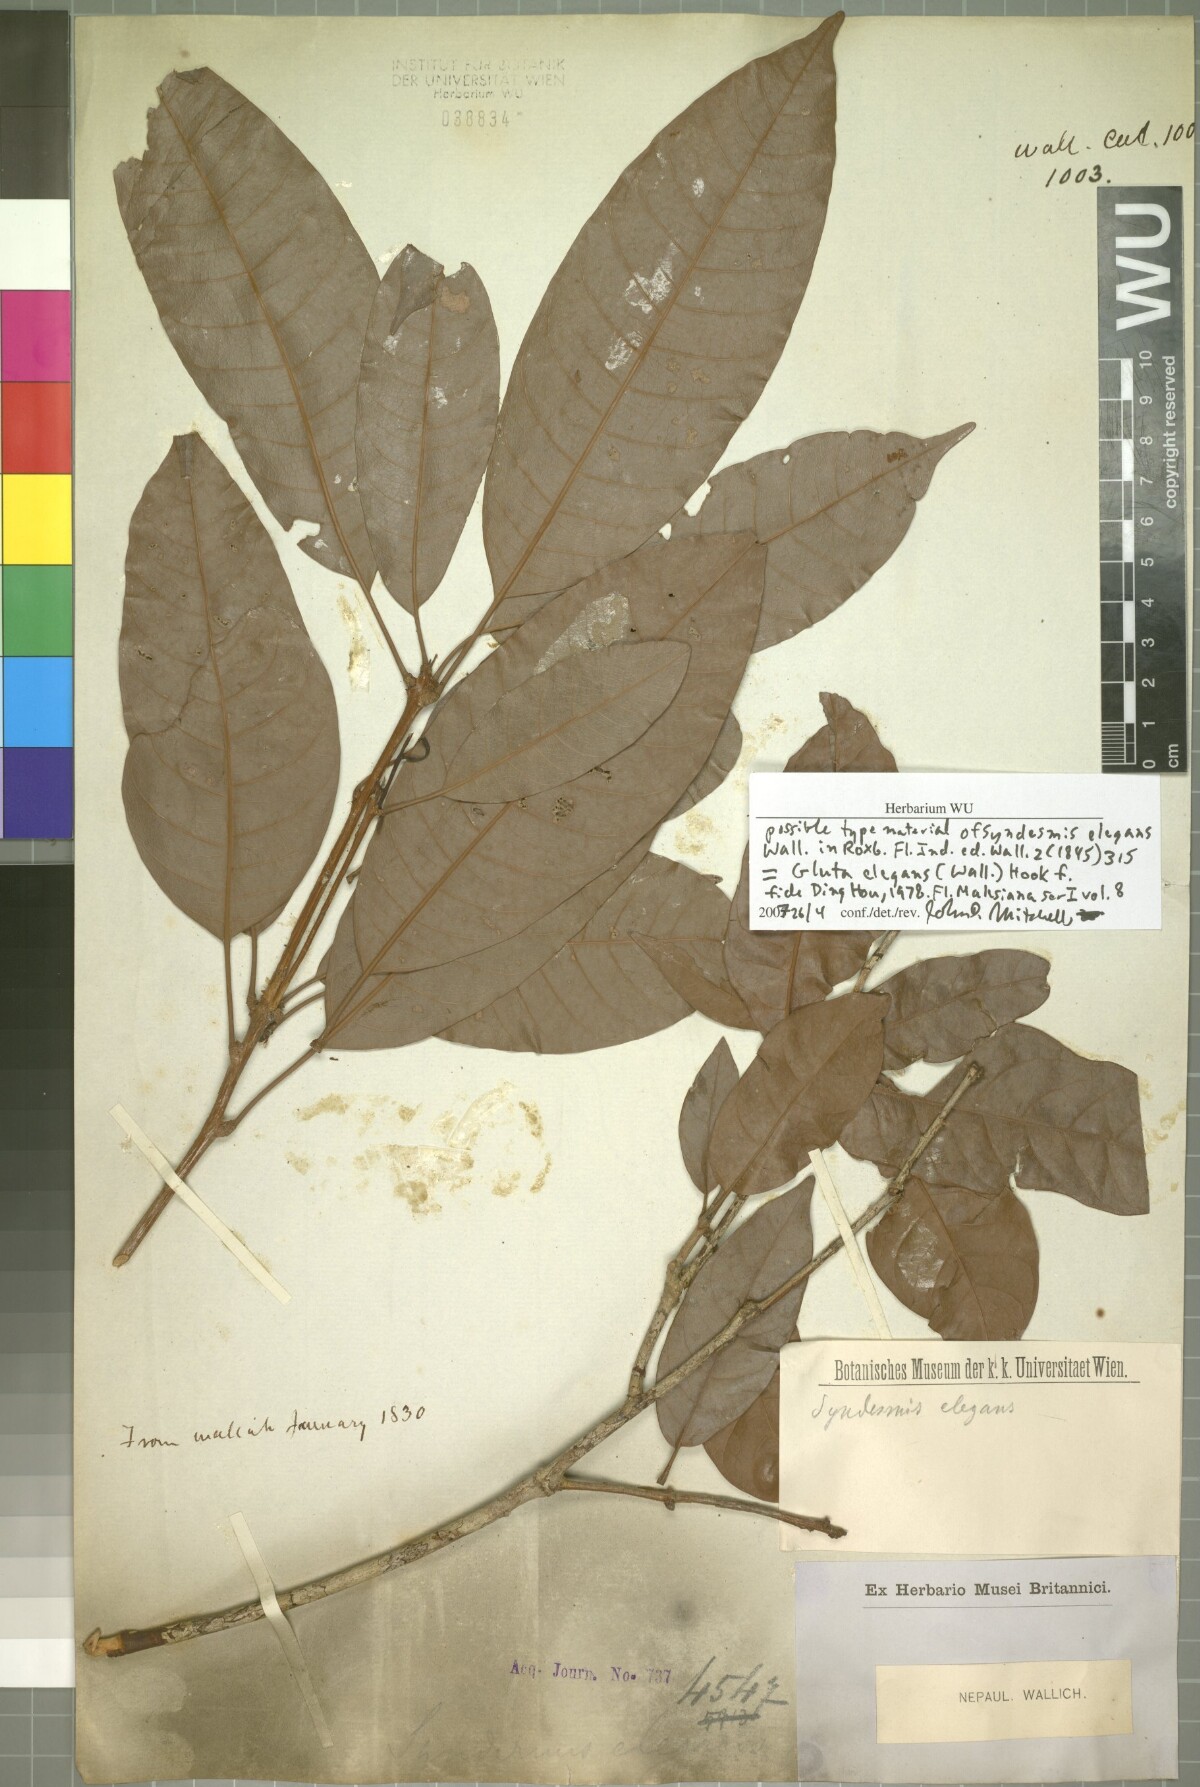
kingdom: Plantae
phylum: Tracheophyta
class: Magnoliopsida
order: Sapindales
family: Anacardiaceae
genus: Gluta
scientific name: Gluta elegans
